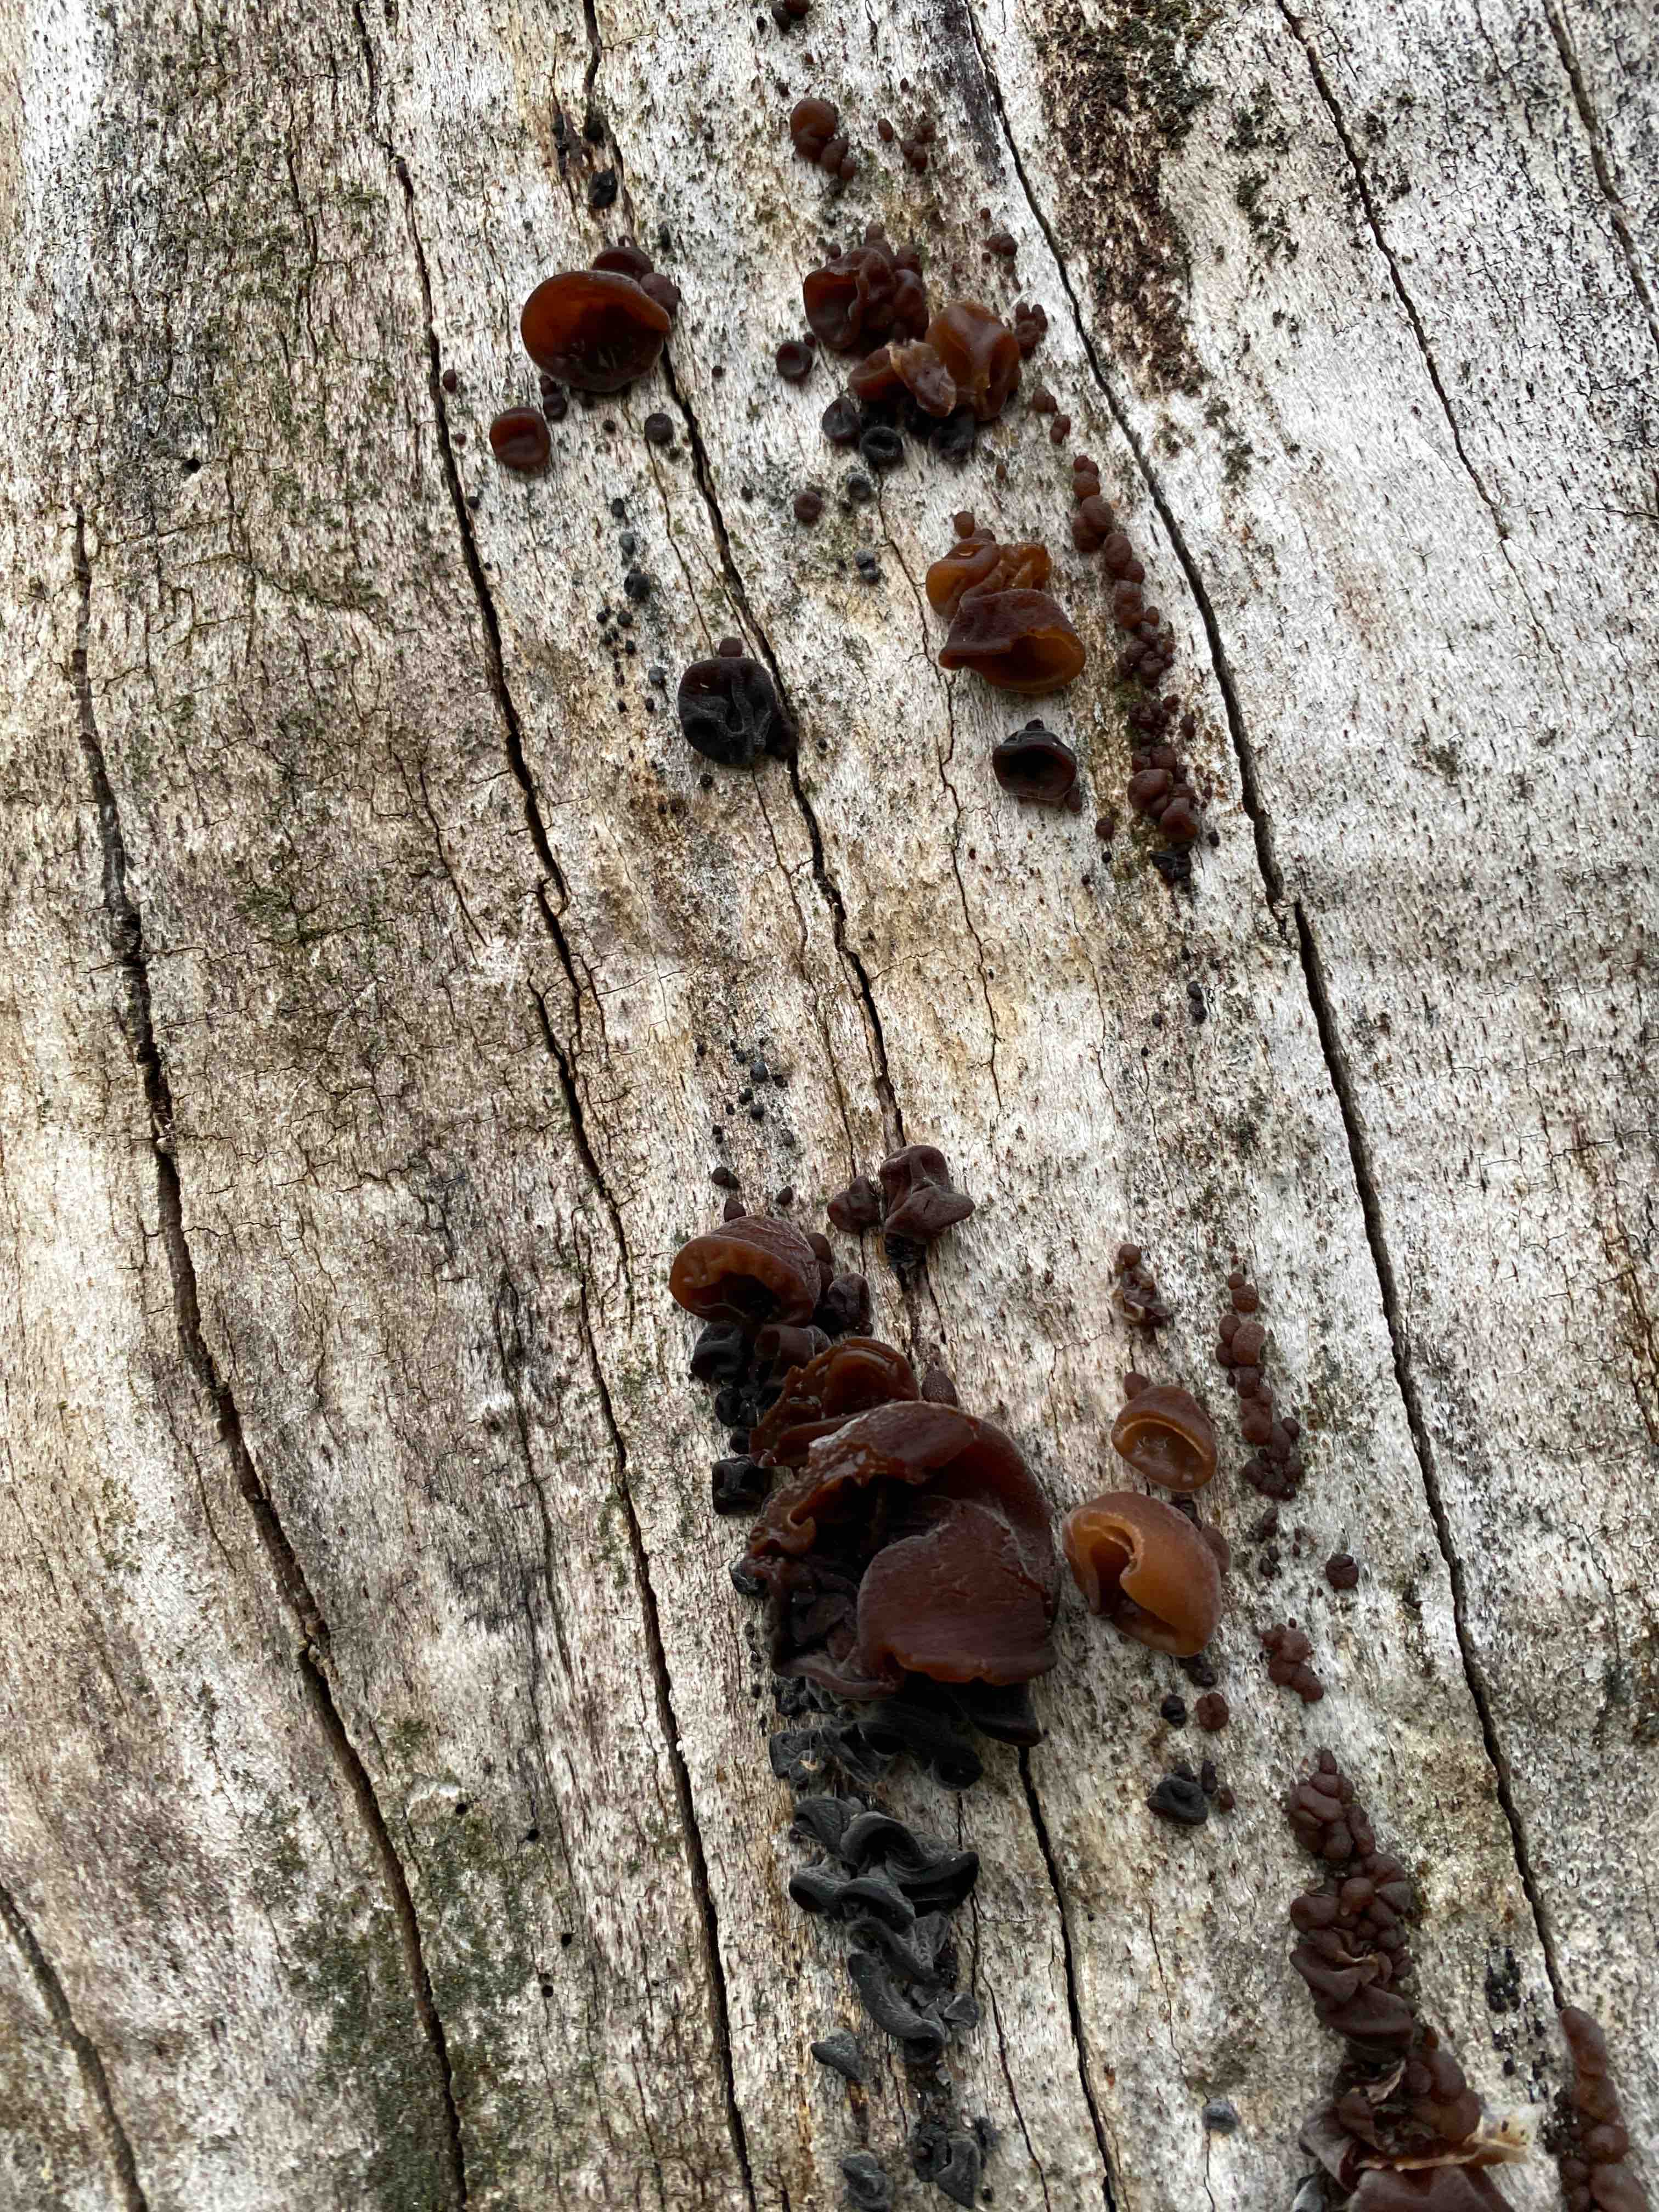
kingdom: Fungi
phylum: Basidiomycota
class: Agaricomycetes
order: Auriculariales
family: Auriculariaceae
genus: Auricularia
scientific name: Auricularia auricula-judae
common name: almindelig judasøre
